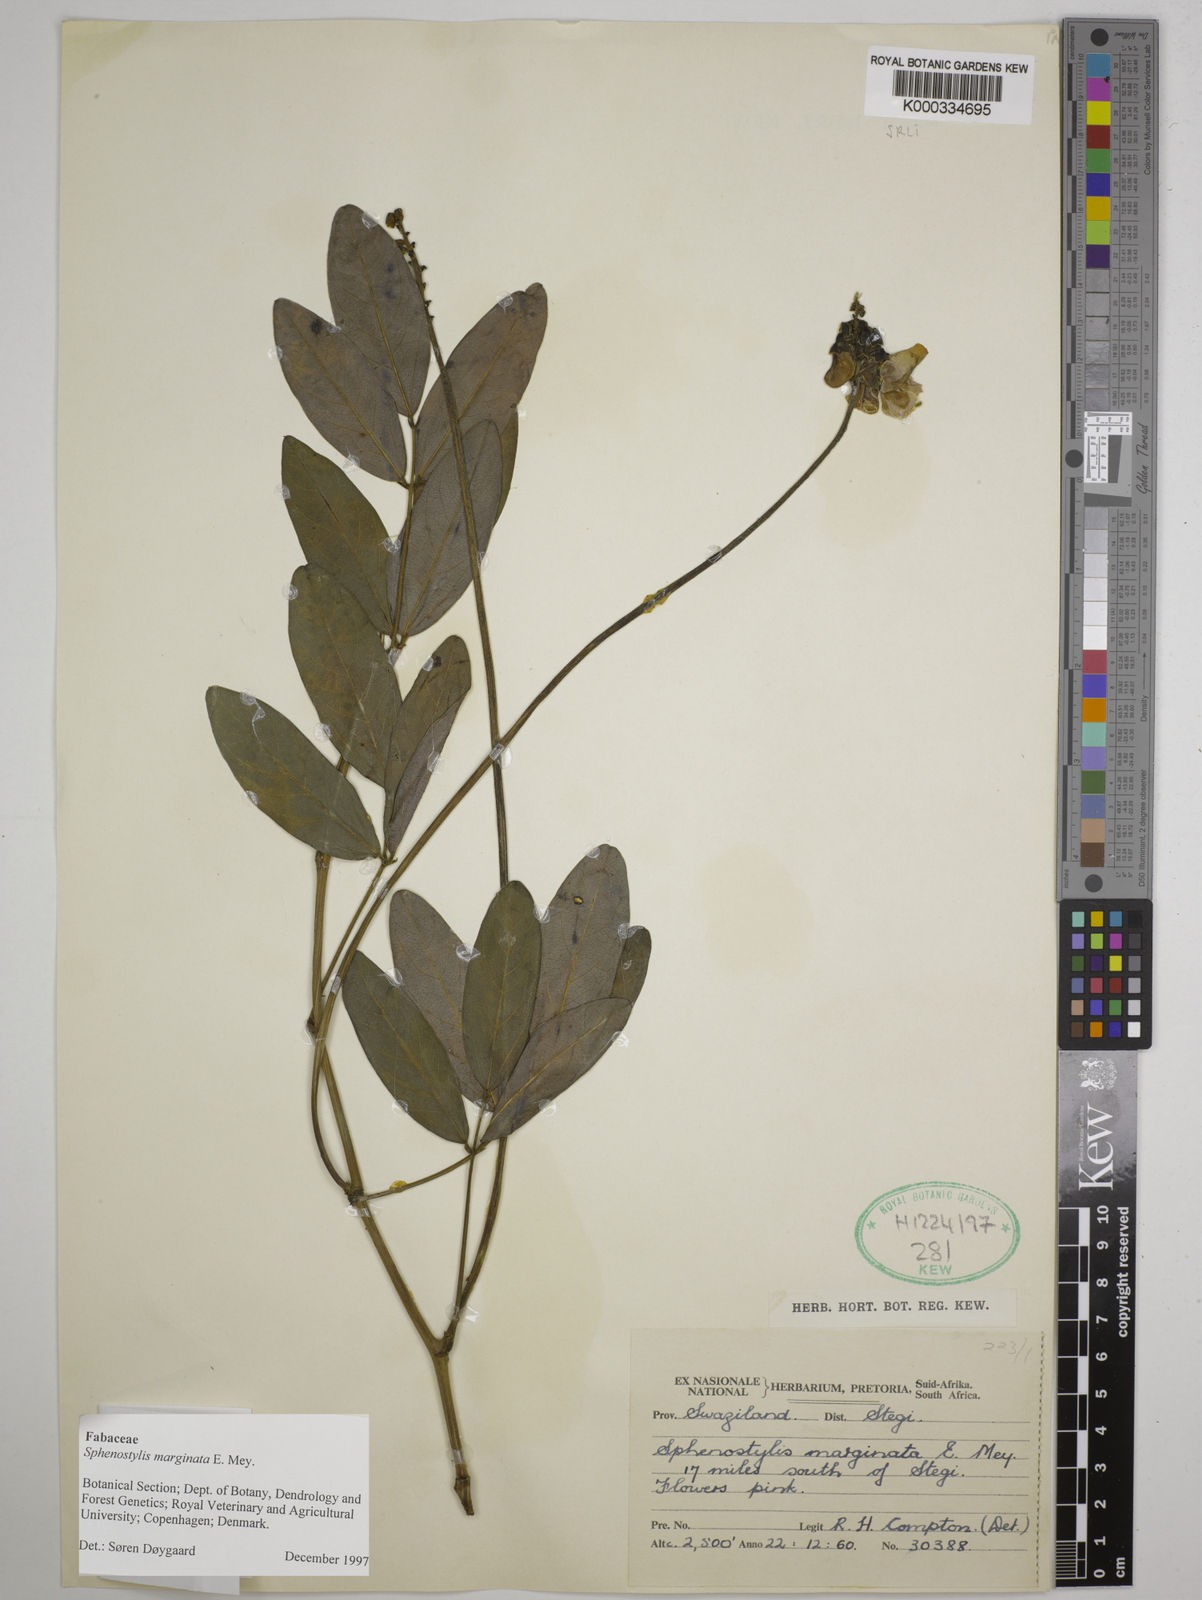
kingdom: Plantae
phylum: Tracheophyta
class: Magnoliopsida
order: Fabales
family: Fabaceae
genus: Sphenostylis
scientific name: Sphenostylis marginata
